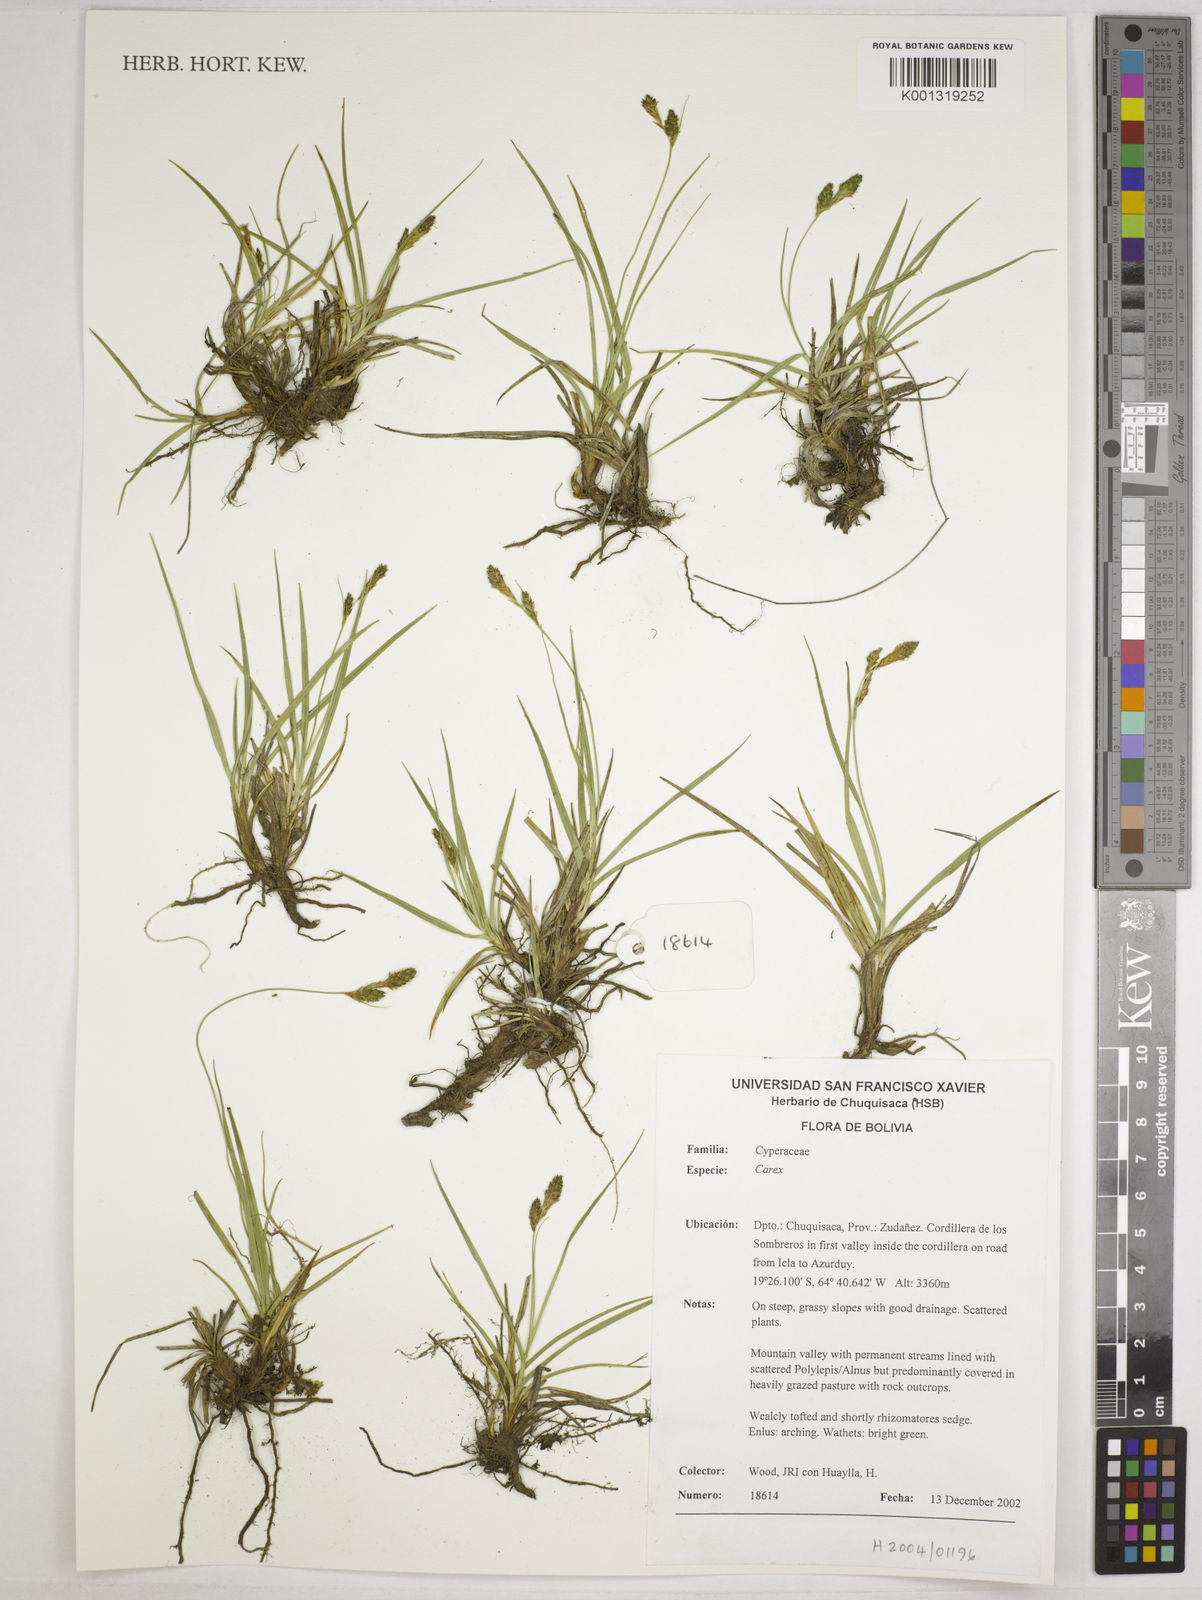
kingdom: Plantae
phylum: Tracheophyta
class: Liliopsida
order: Poales
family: Cyperaceae
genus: Carex
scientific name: Carex boliviensis
